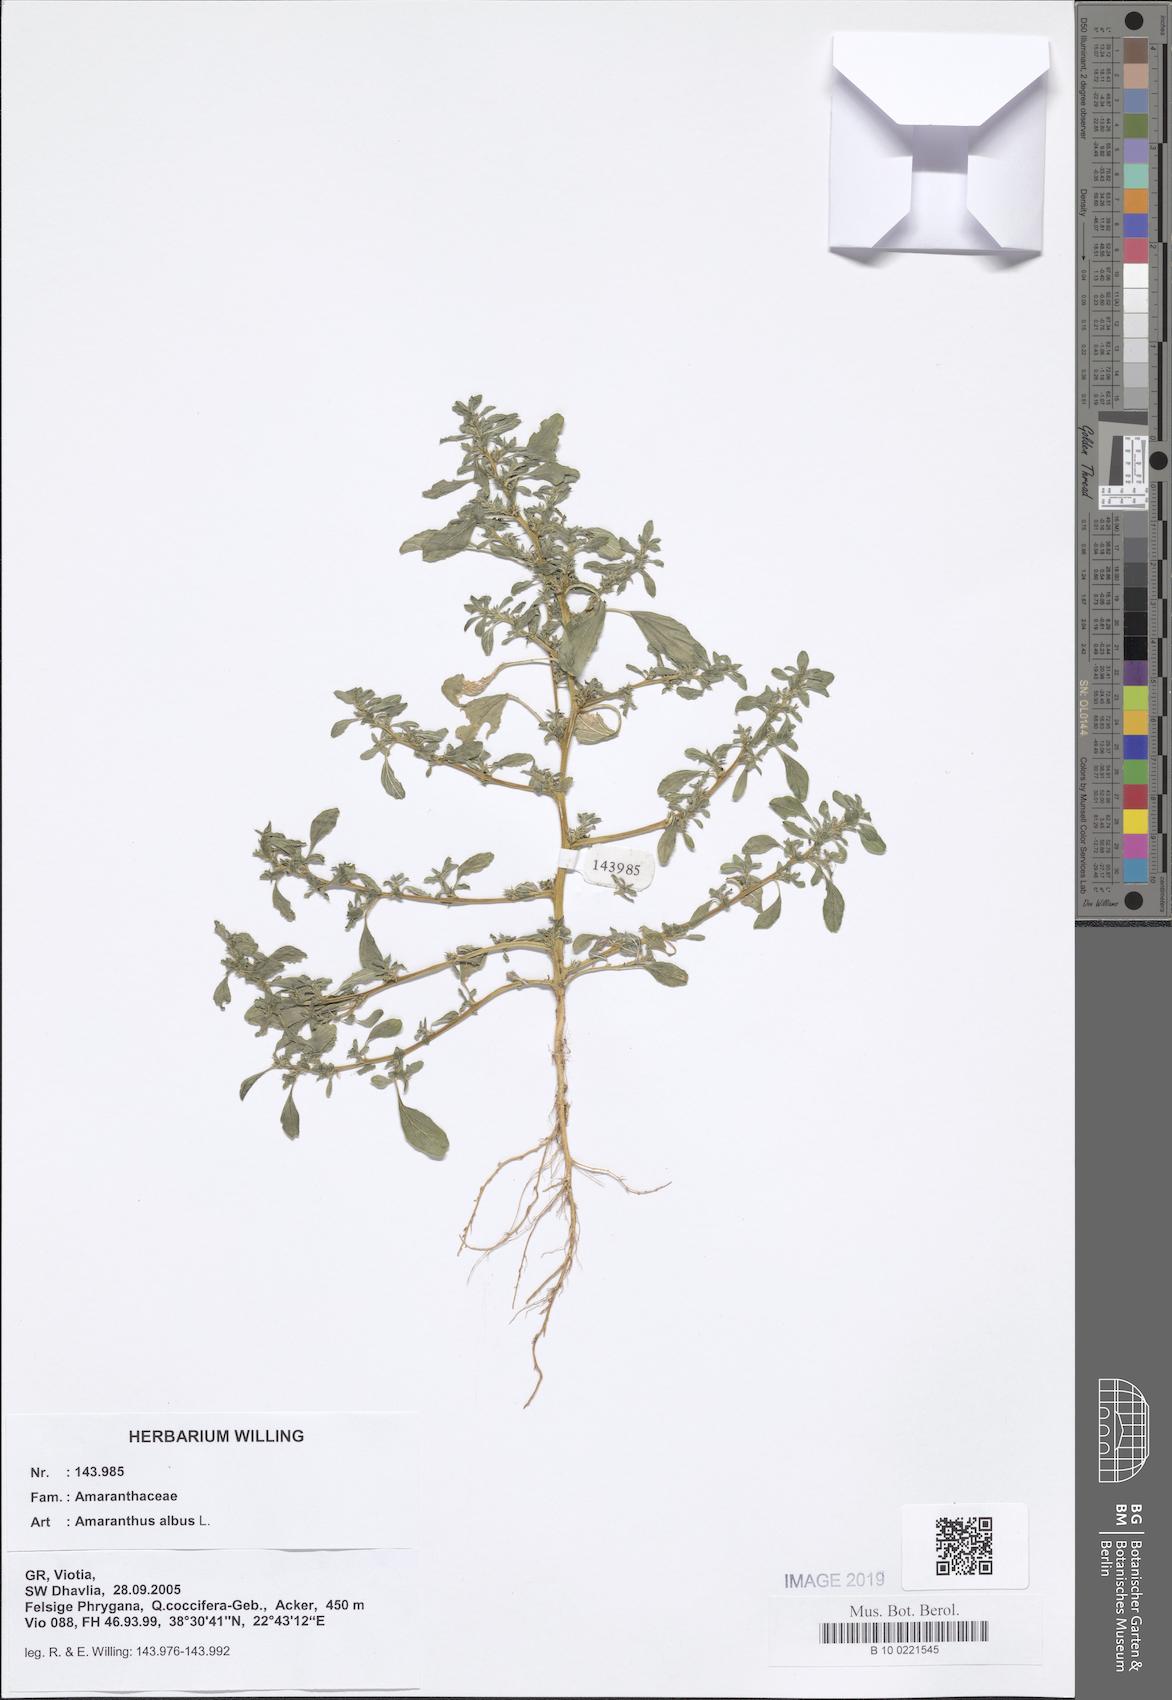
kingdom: Plantae
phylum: Tracheophyta
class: Magnoliopsida
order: Caryophyllales
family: Amaranthaceae
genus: Amaranthus
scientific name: Amaranthus albus
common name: White pigweed
